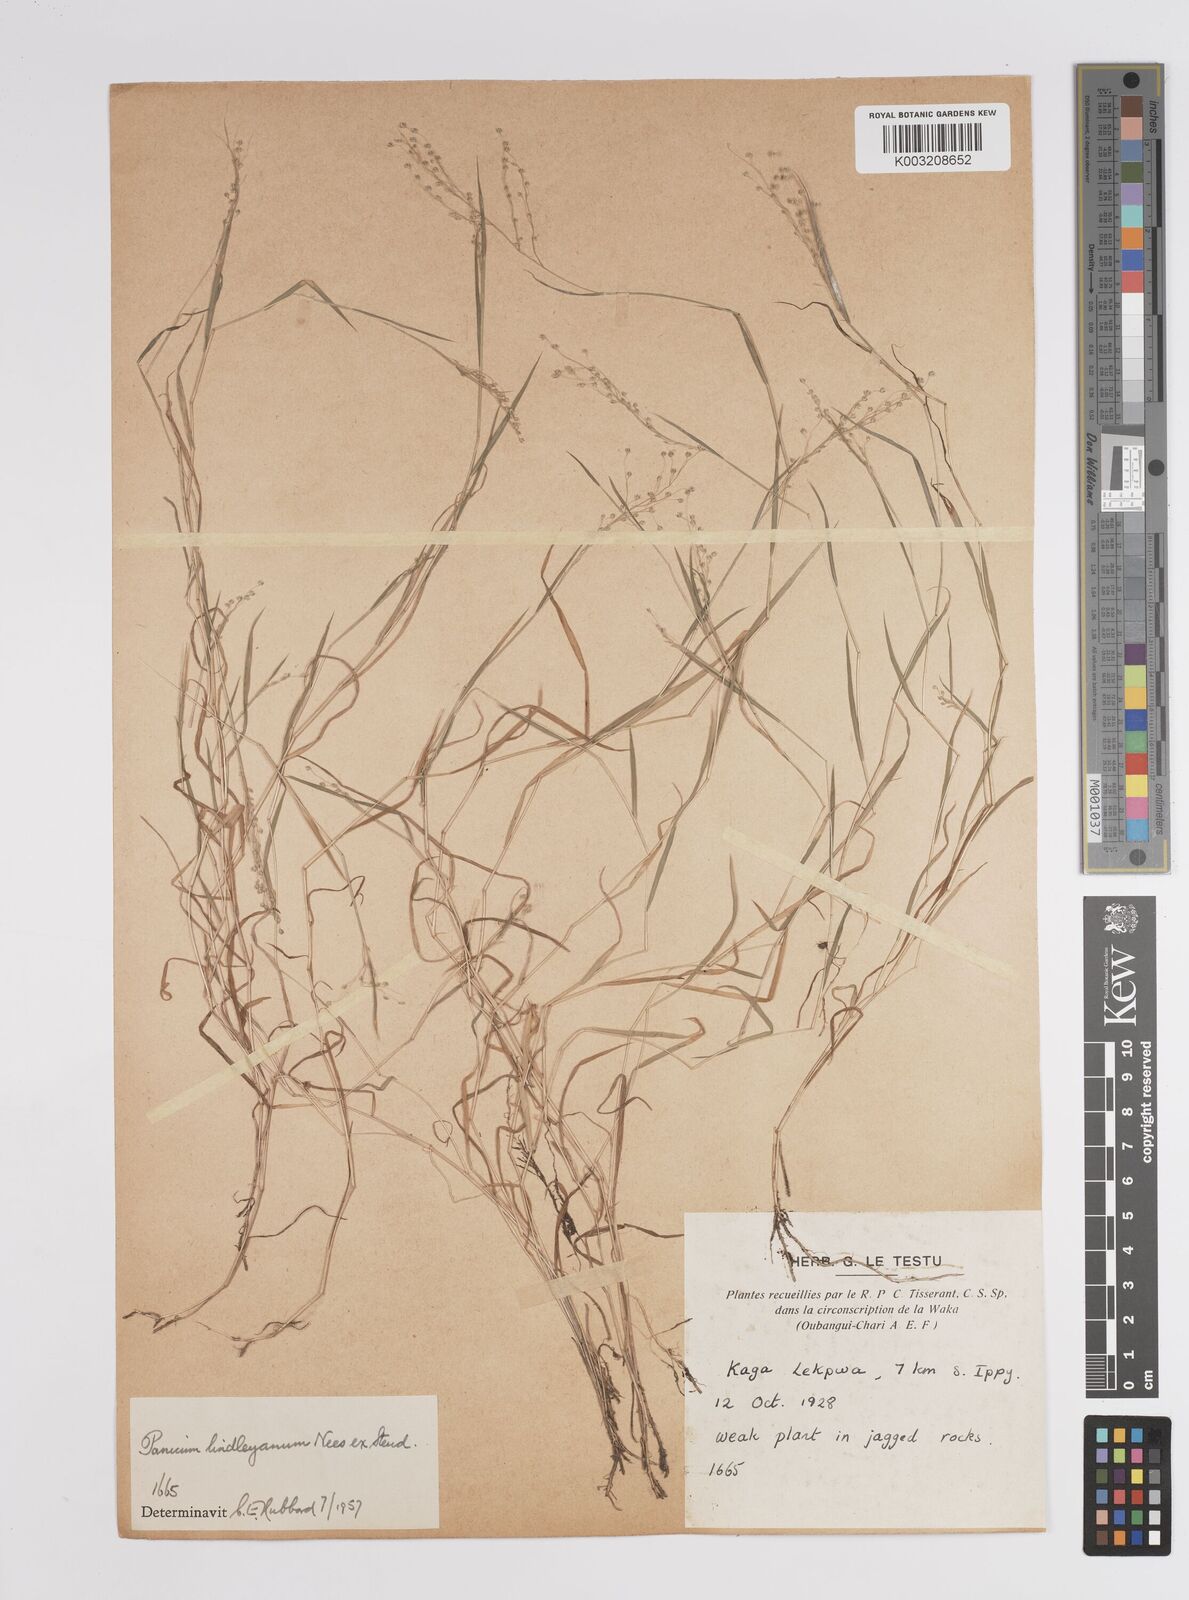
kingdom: Plantae
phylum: Tracheophyta
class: Liliopsida
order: Poales
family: Poaceae
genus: Panicum
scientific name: Panicum
